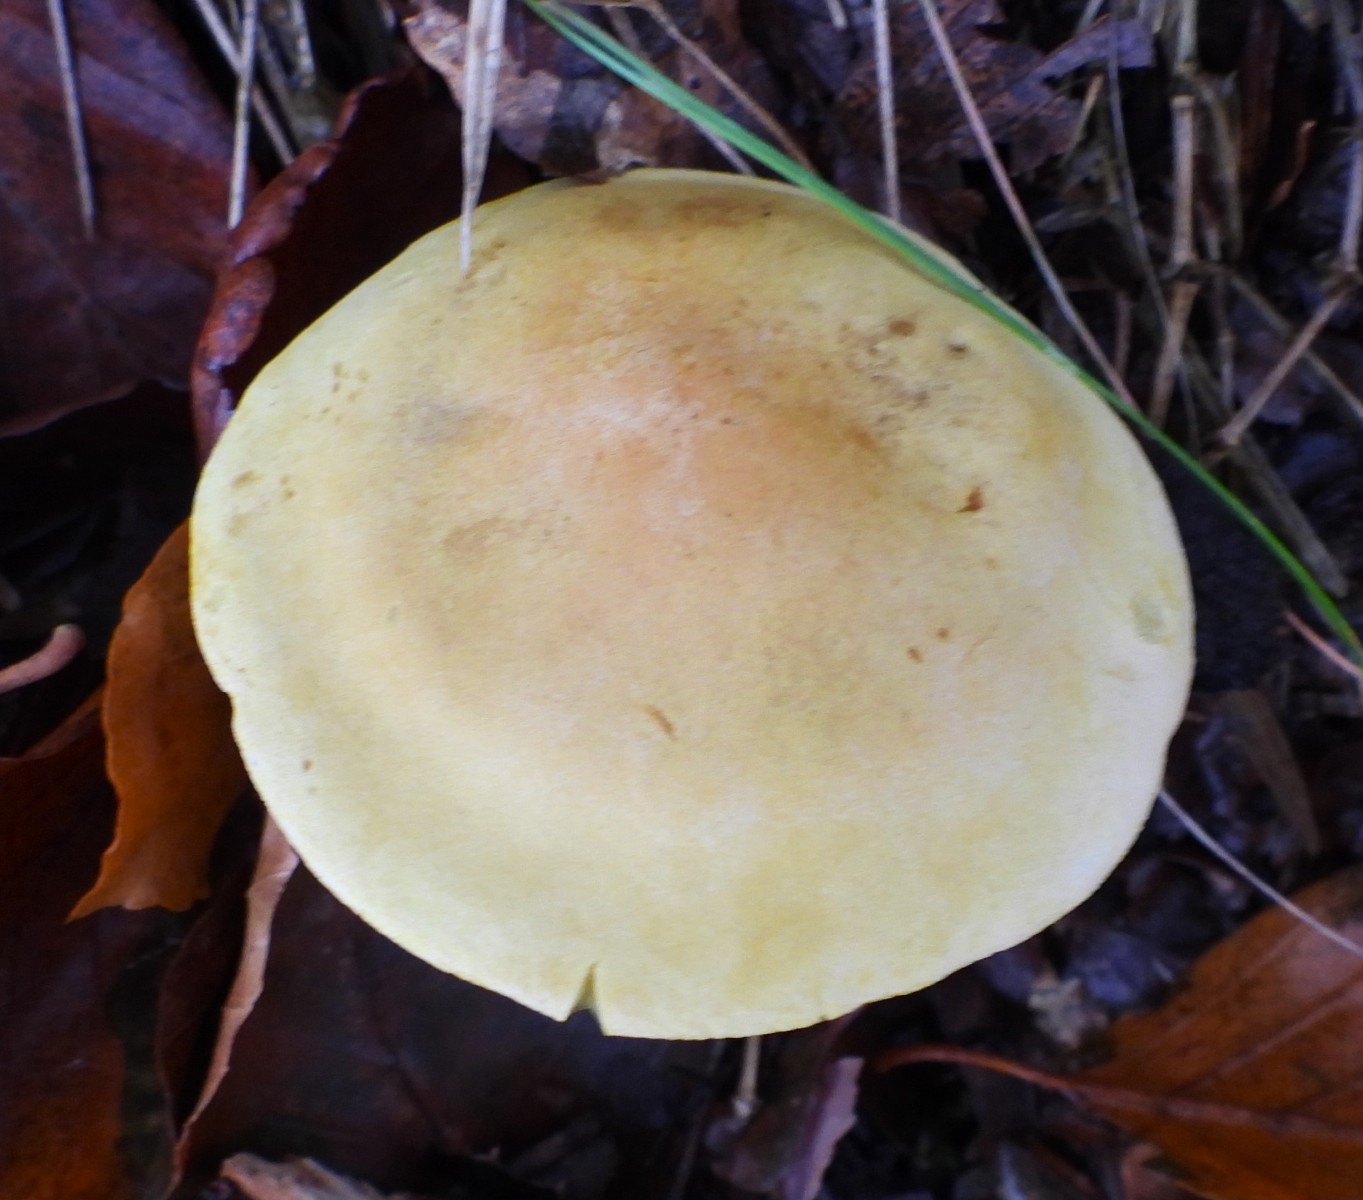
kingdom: Fungi
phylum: Basidiomycota
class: Agaricomycetes
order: Agaricales
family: Tricholomataceae
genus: Tricholoma
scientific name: Tricholoma sulphureum
